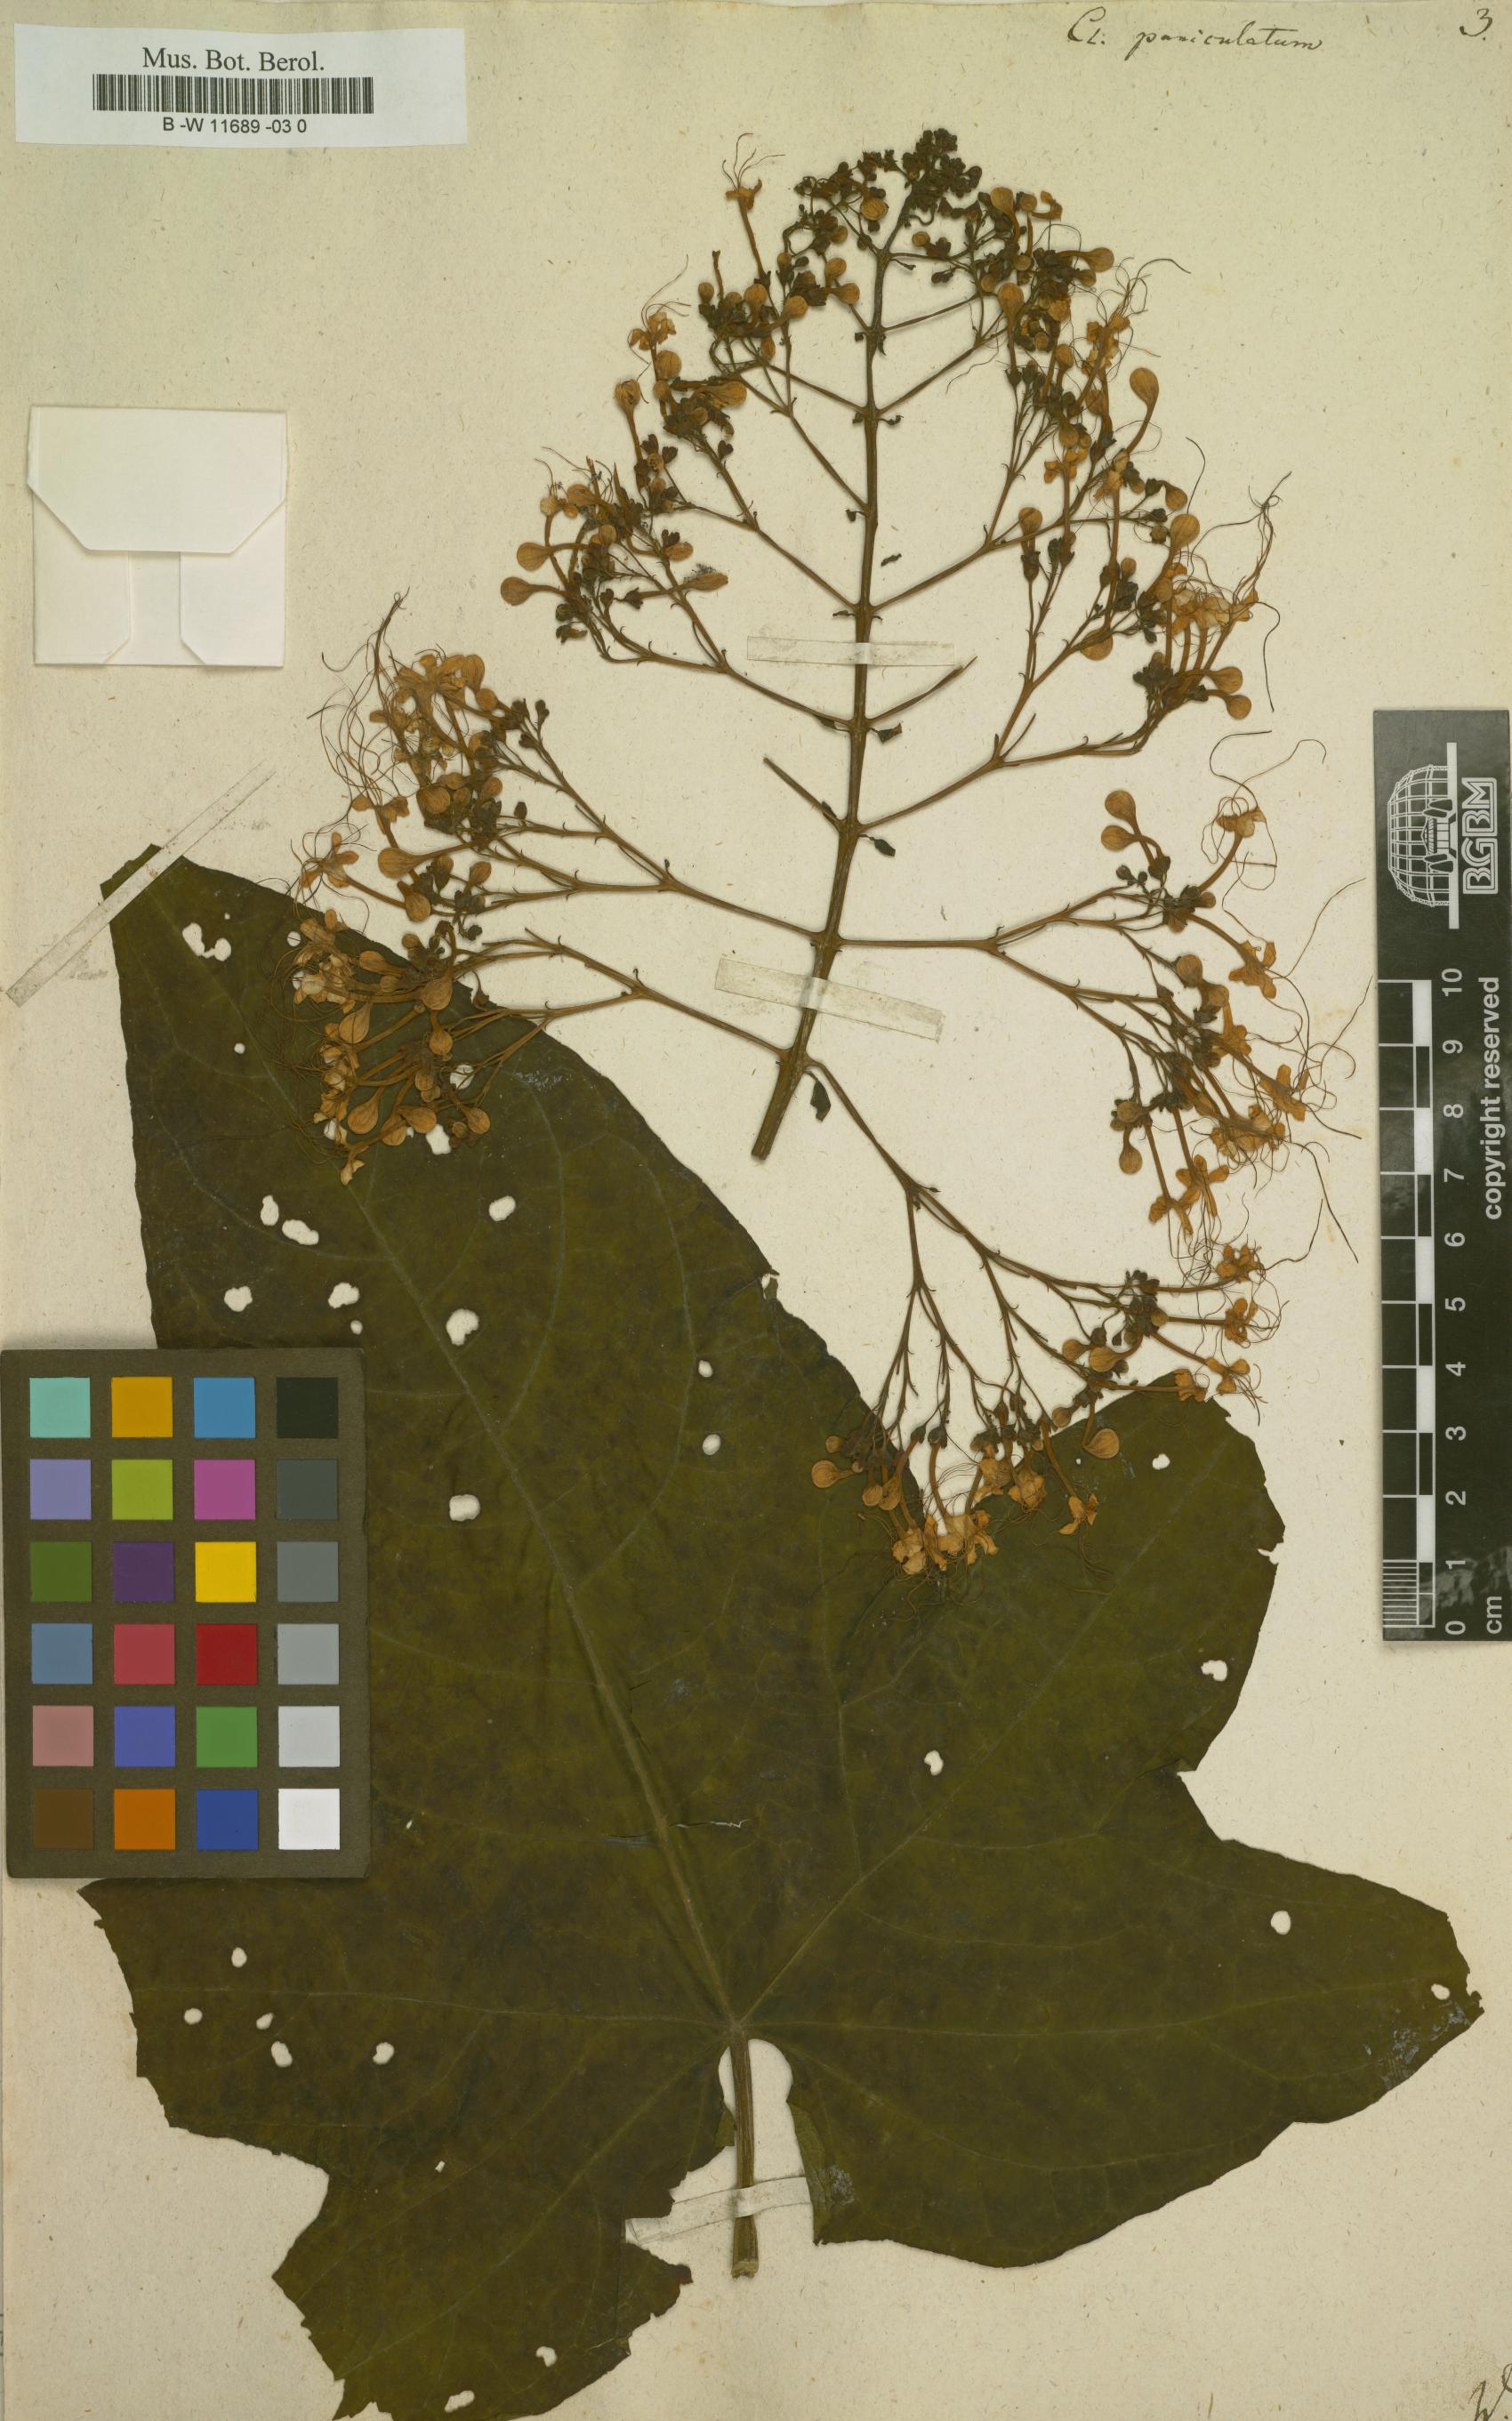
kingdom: Plantae
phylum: Tracheophyta
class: Magnoliopsida
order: Lamiales
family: Lamiaceae
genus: Clerodendrum
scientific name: Clerodendrum paniculatum
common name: Pagoda-flower
